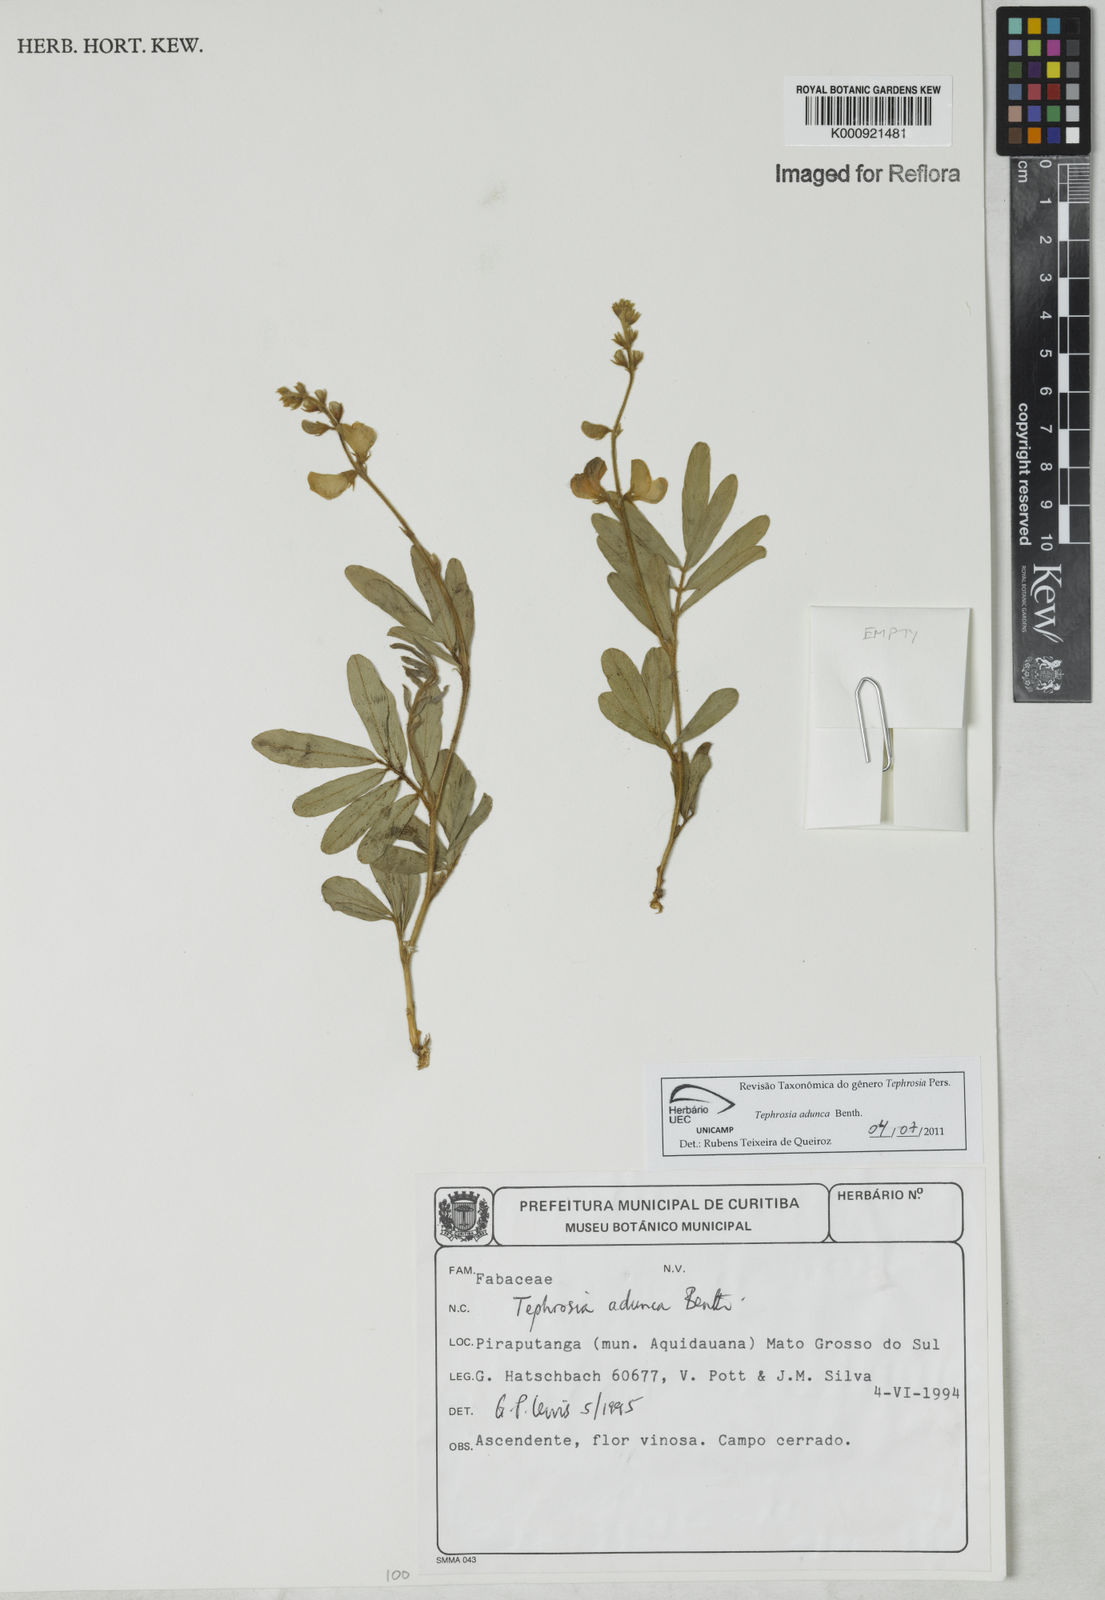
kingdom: Plantae
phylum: Tracheophyta
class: Magnoliopsida
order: Fabales
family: Fabaceae
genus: Tephrosia
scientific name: Tephrosia adunca
